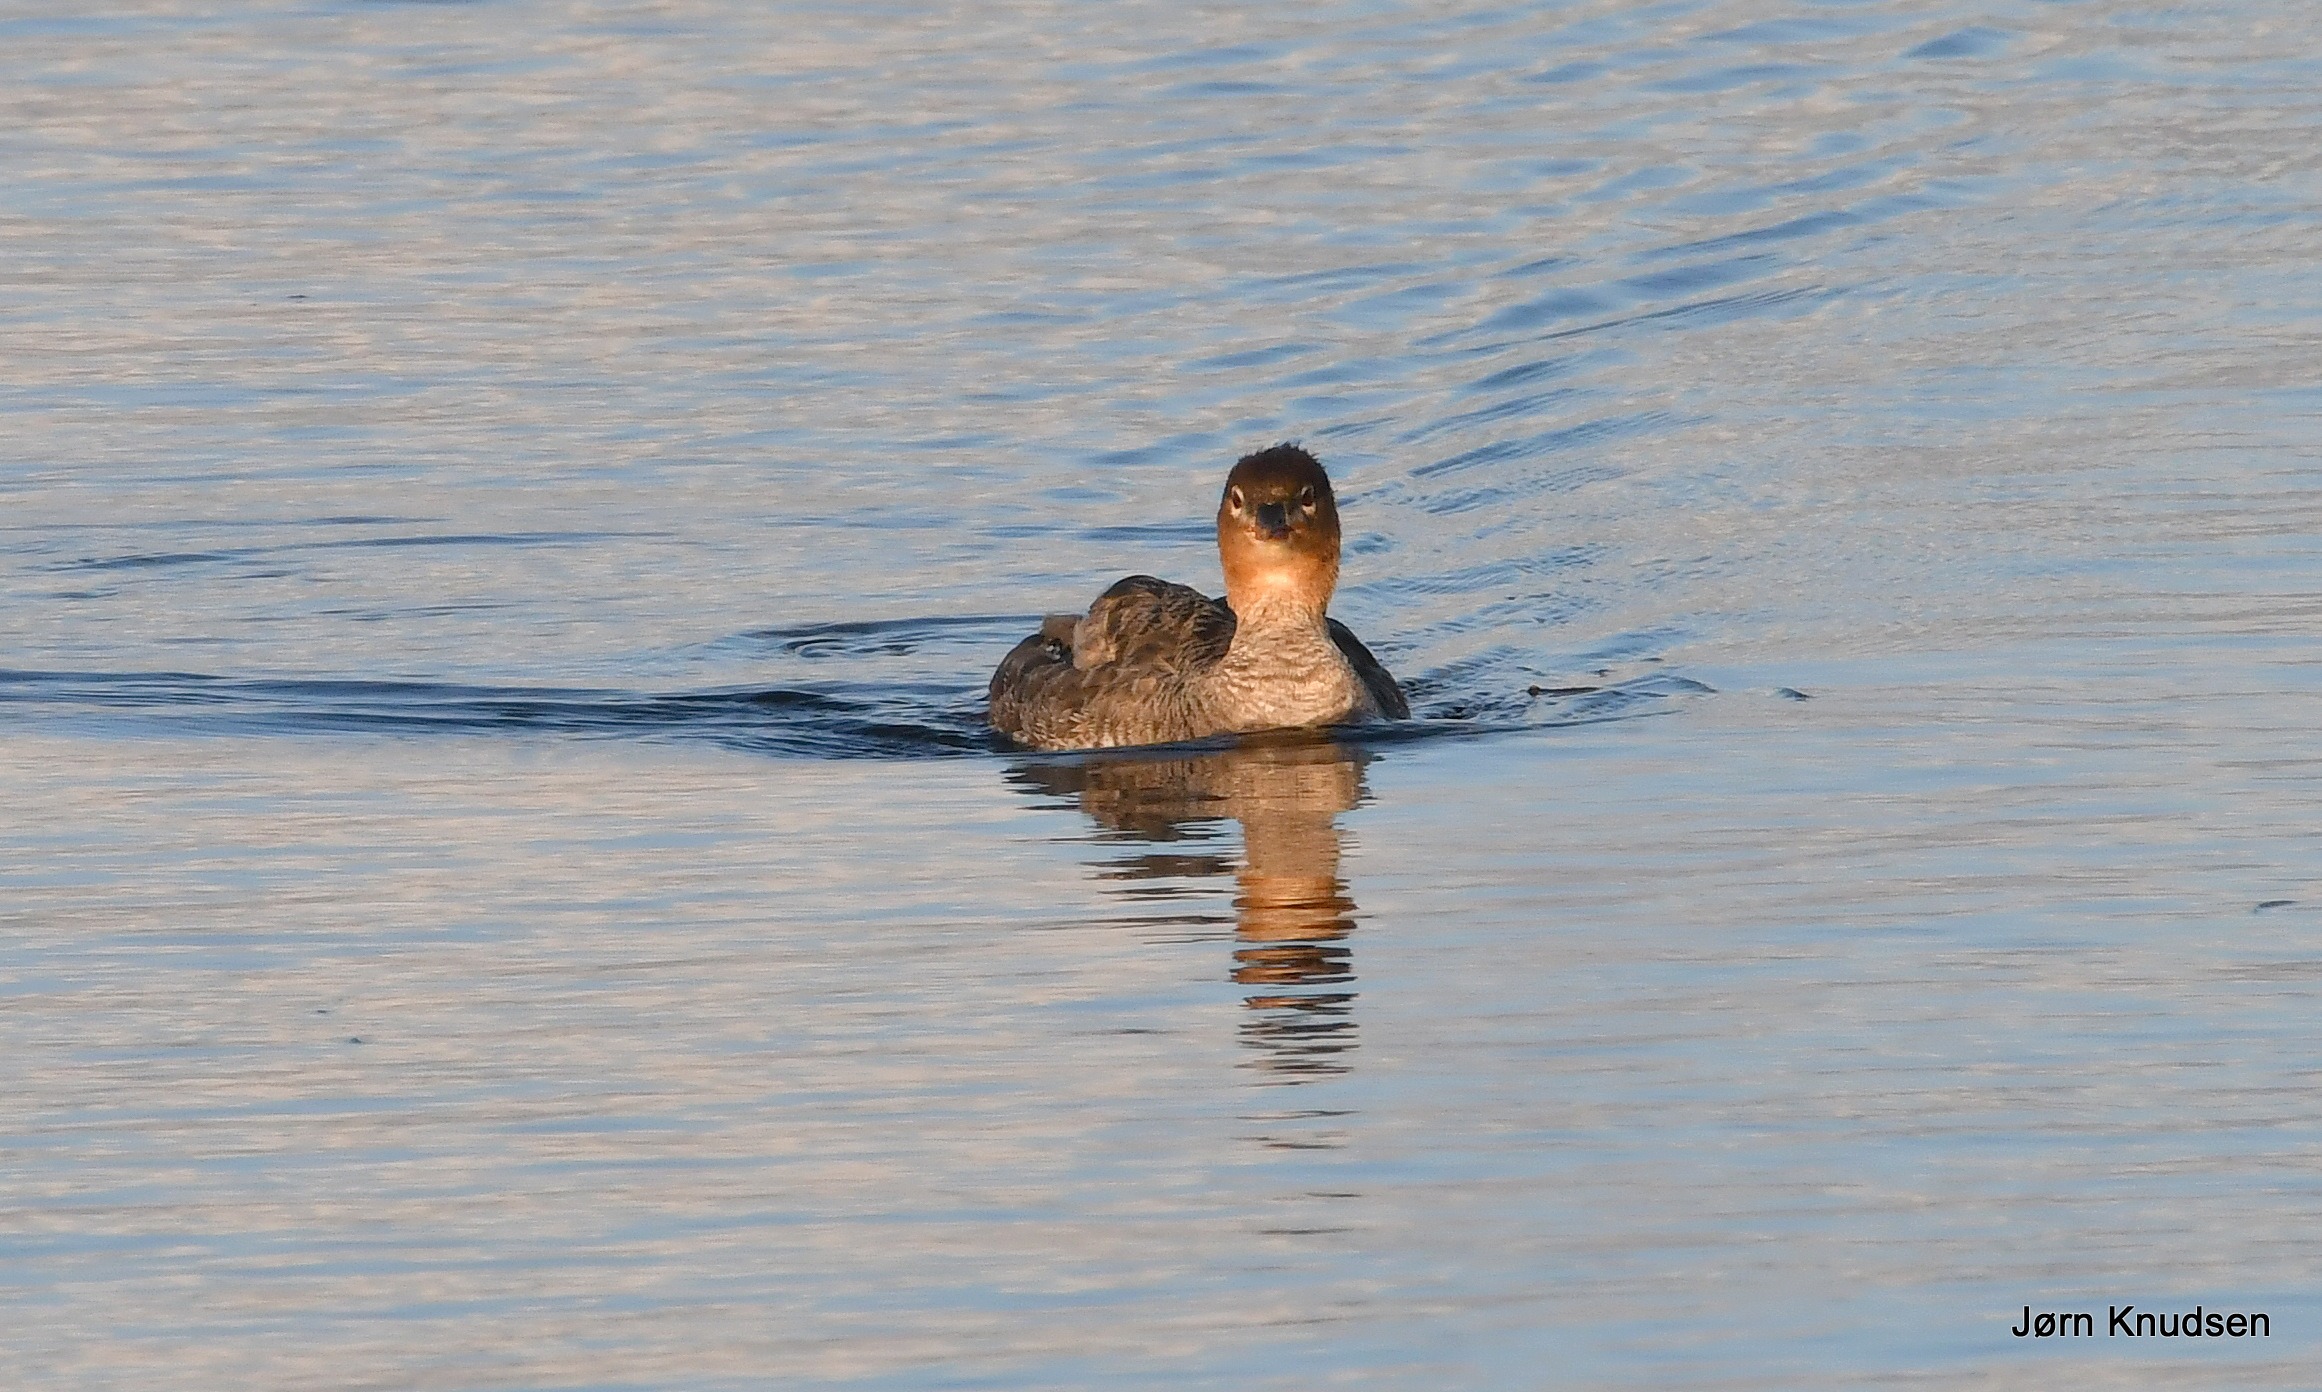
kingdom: Animalia
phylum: Chordata
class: Aves
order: Anseriformes
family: Anatidae
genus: Mergus
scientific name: Mergus serrator
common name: Toppet skallesluger
